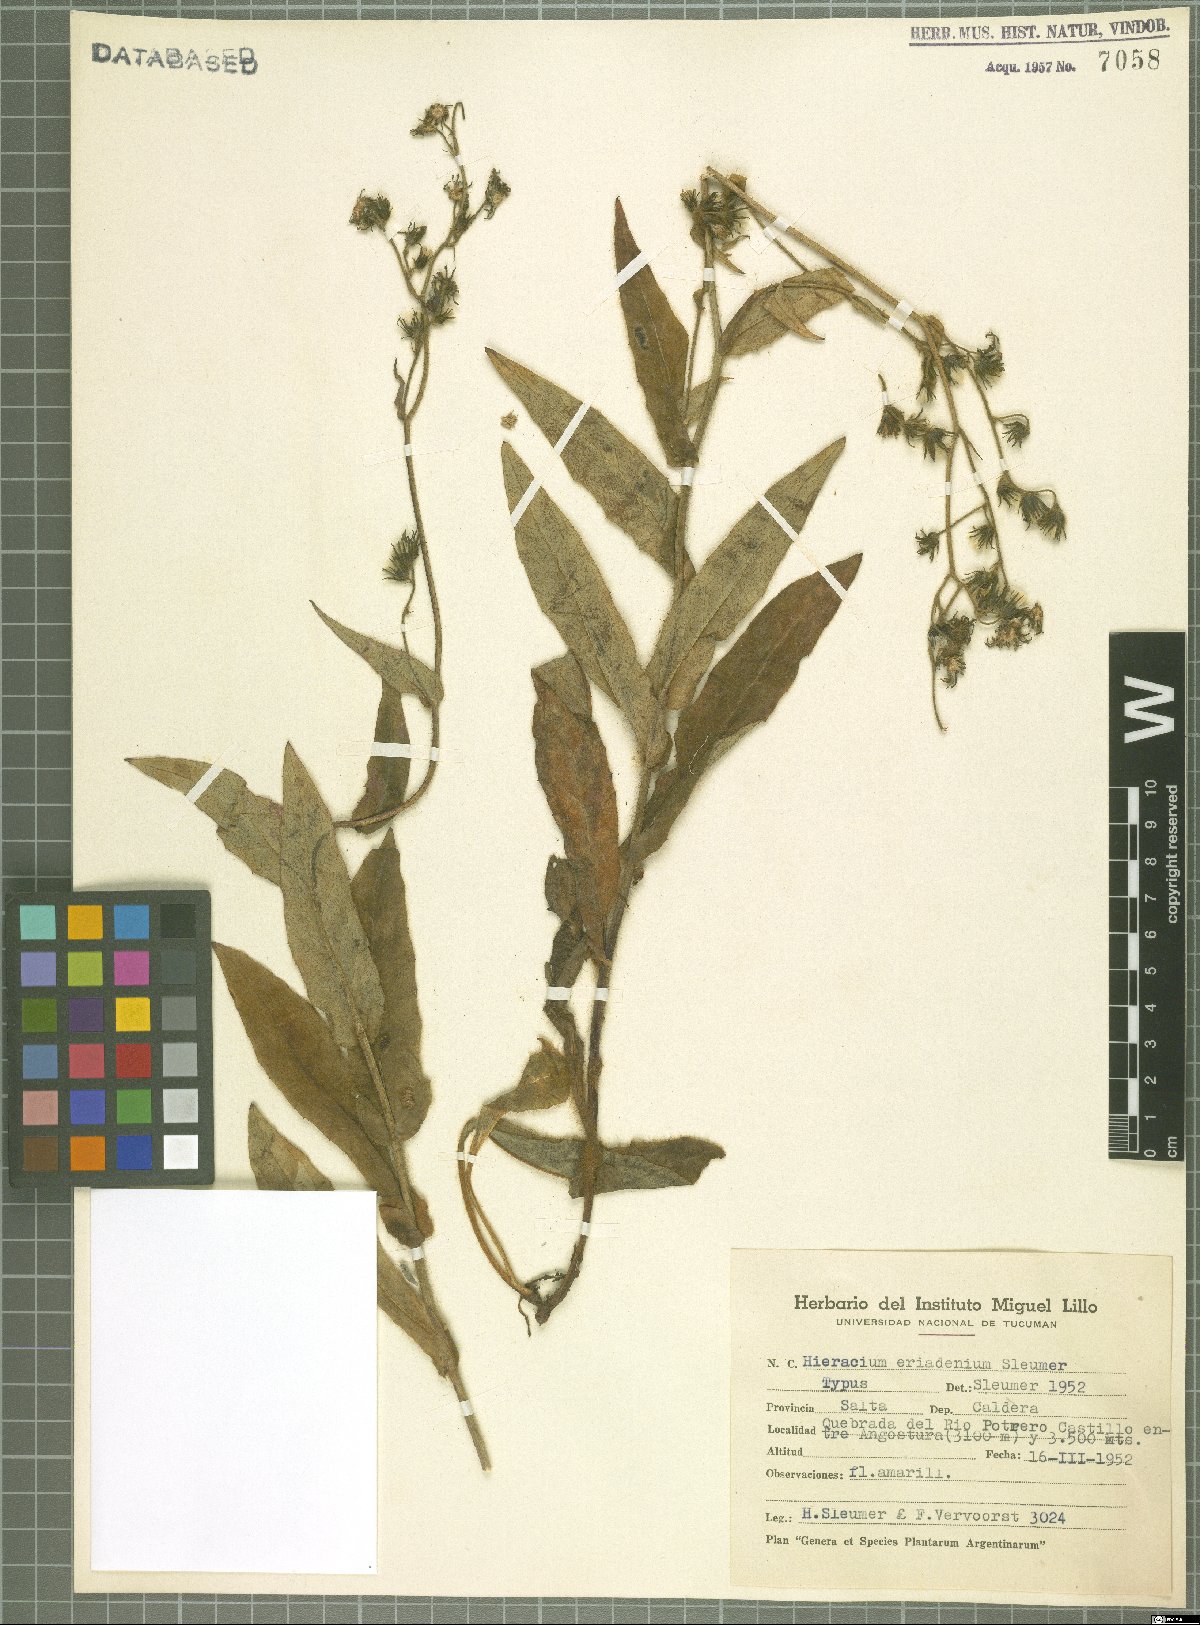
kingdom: Plantae
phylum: Tracheophyta
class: Magnoliopsida
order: Asterales
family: Asteraceae
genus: Hieracium
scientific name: Hieracium eriadenium
